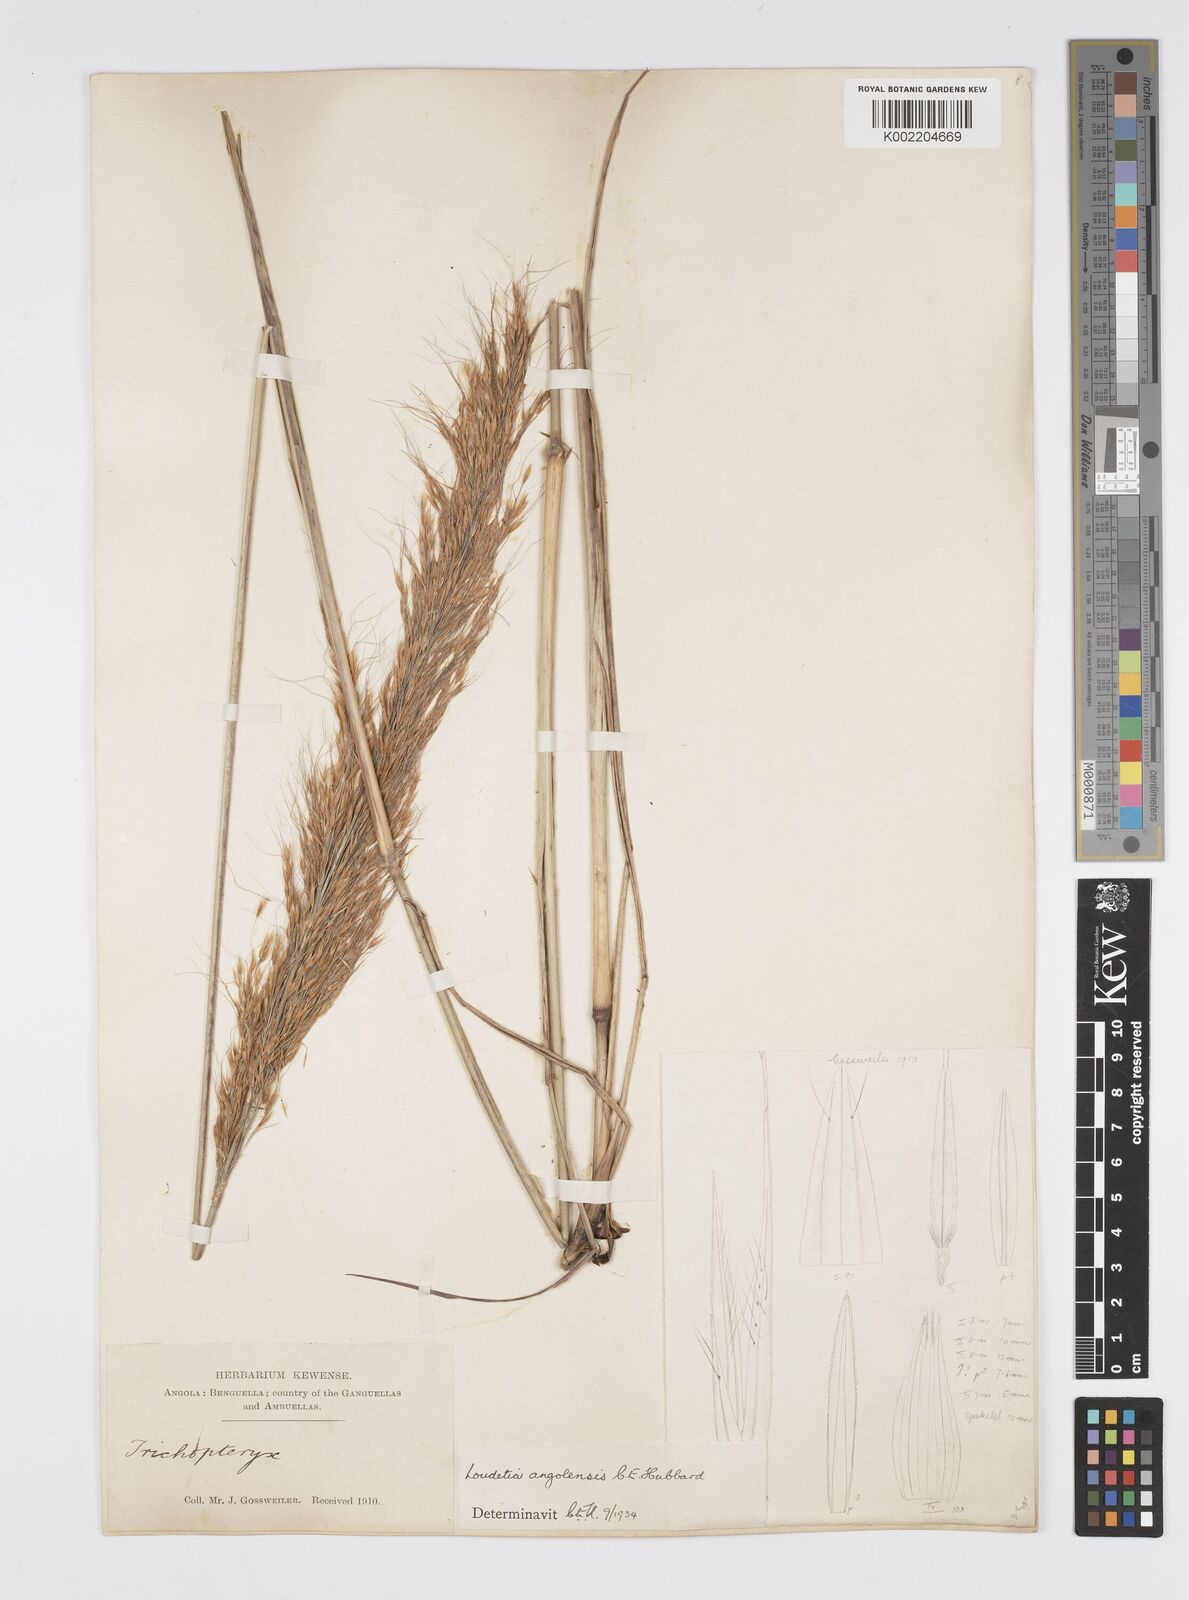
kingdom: Plantae
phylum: Tracheophyta
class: Liliopsida
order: Poales
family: Poaceae
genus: Loudetia
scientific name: Loudetia angolensis
